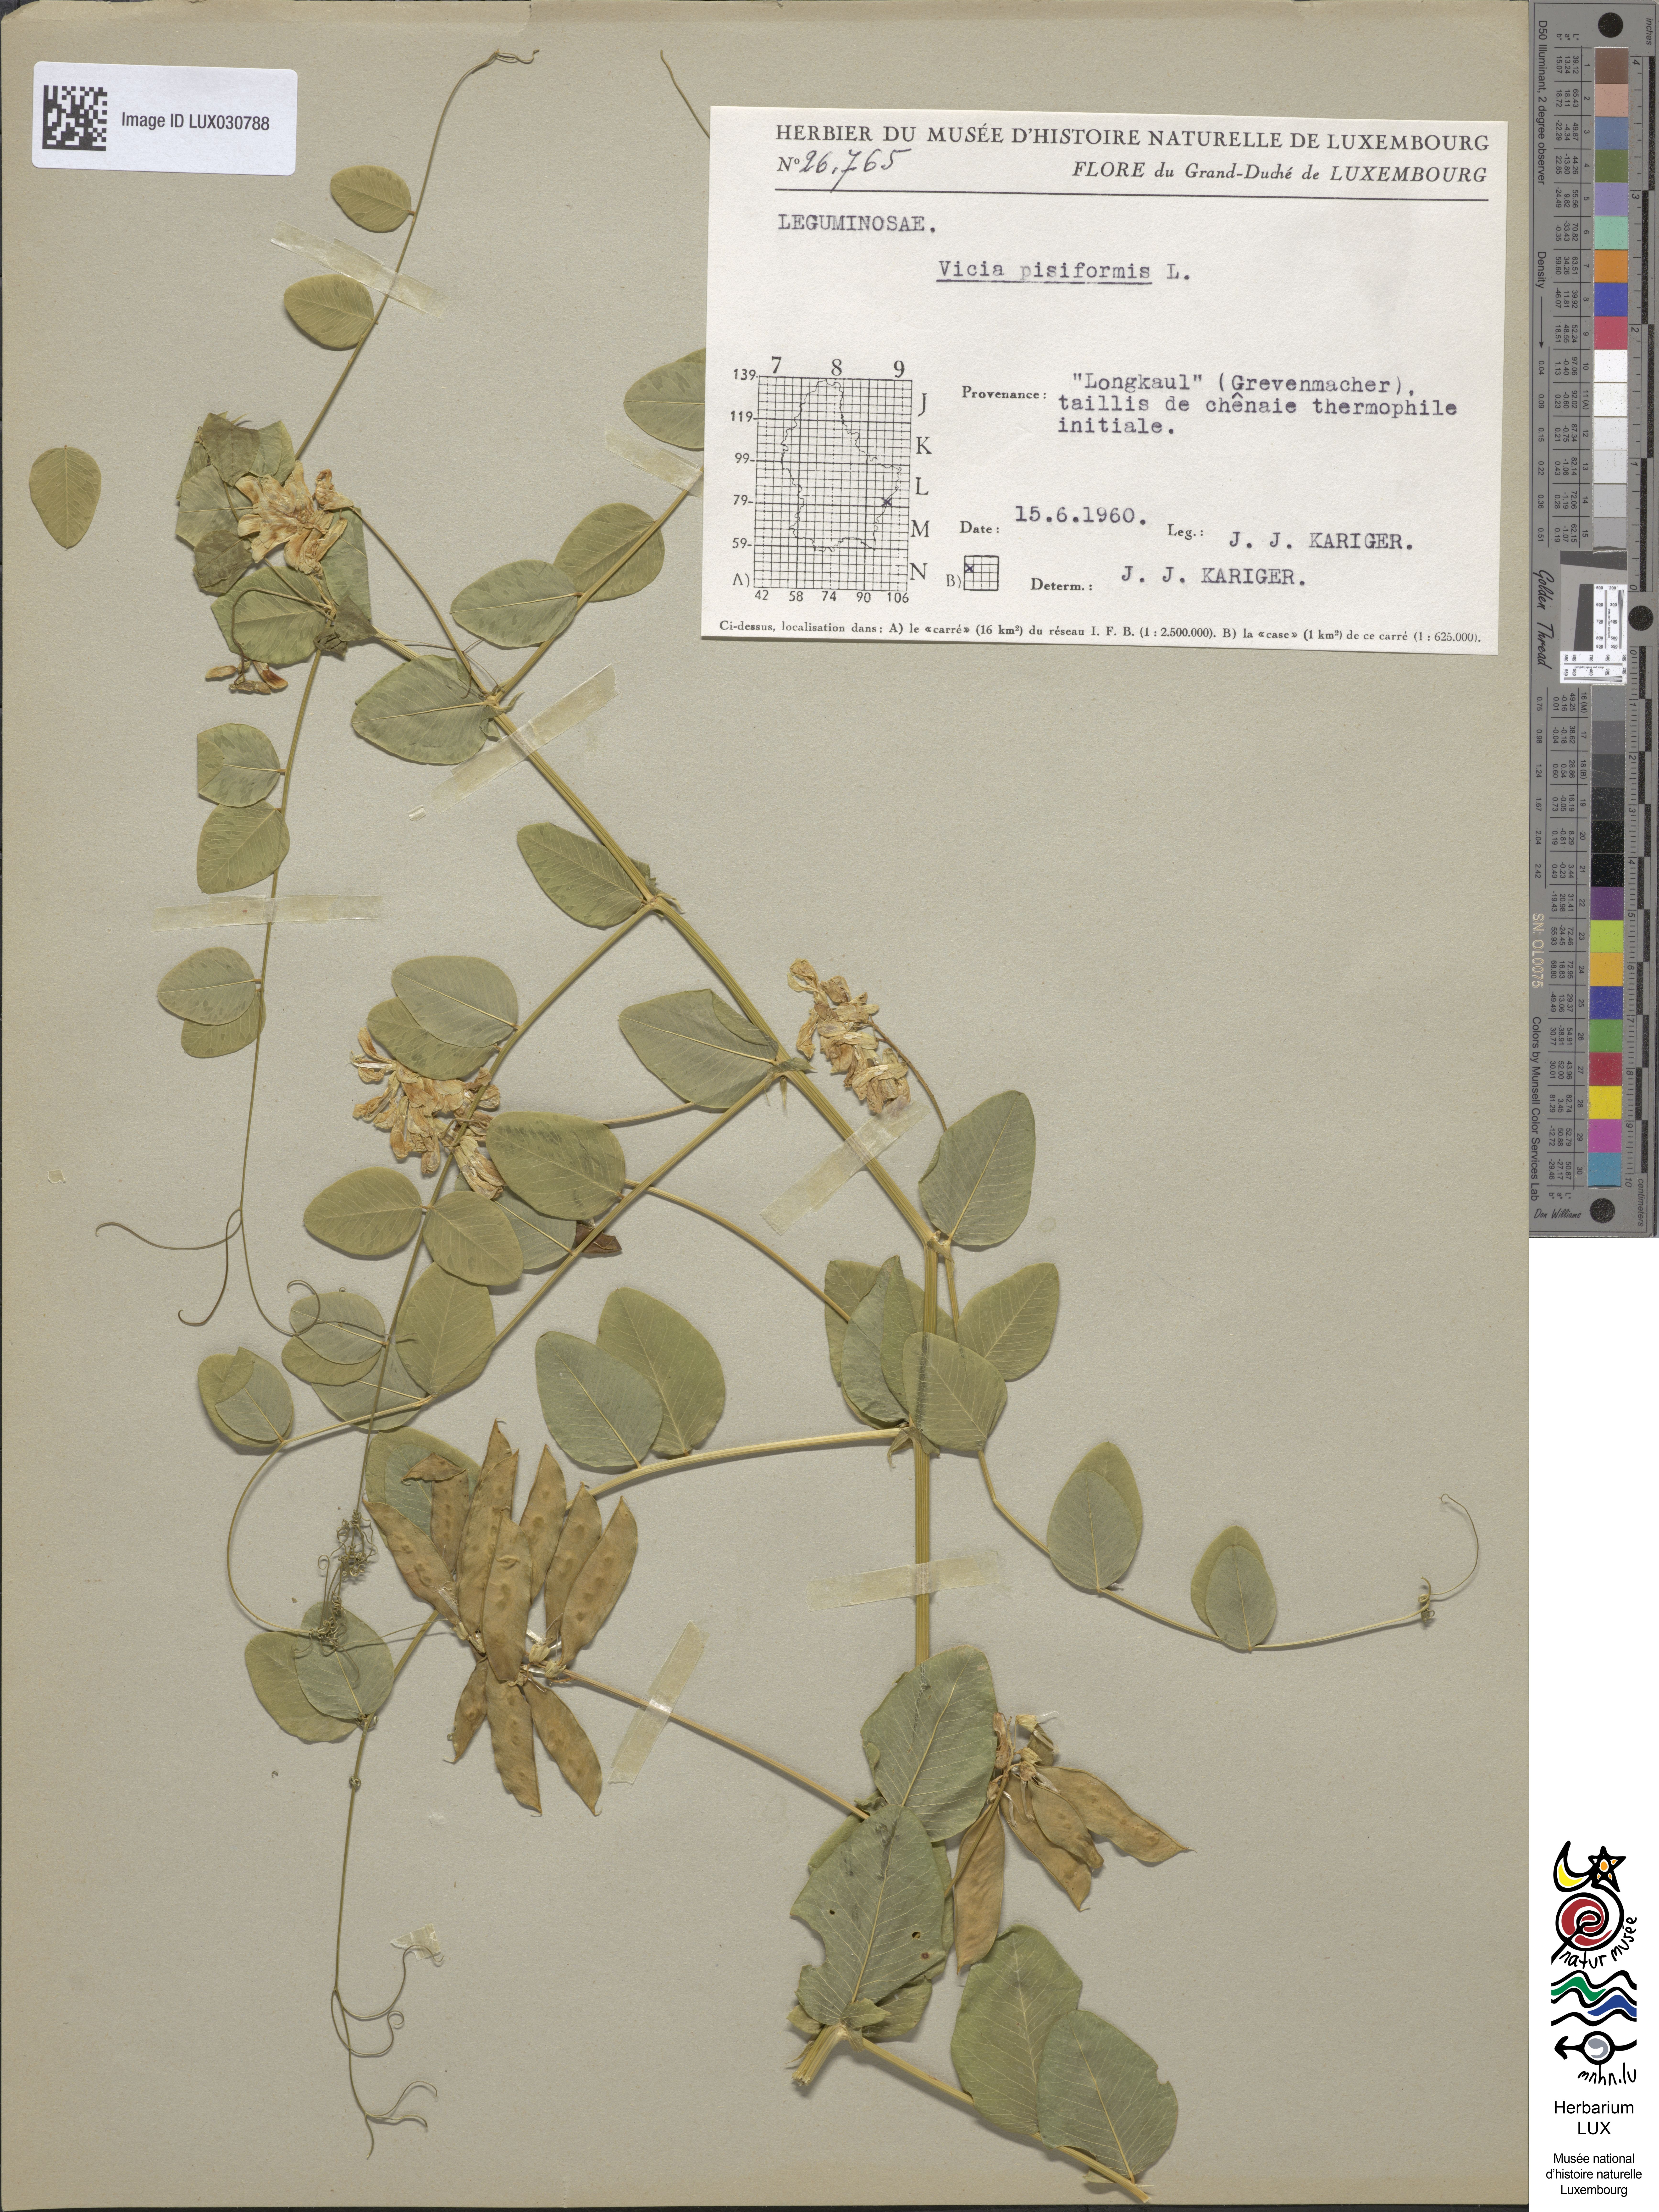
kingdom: Plantae
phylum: Tracheophyta
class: Magnoliopsida
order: Fabales
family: Fabaceae
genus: Vicia
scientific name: Vicia pisiformis
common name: Pale-flower vetch
